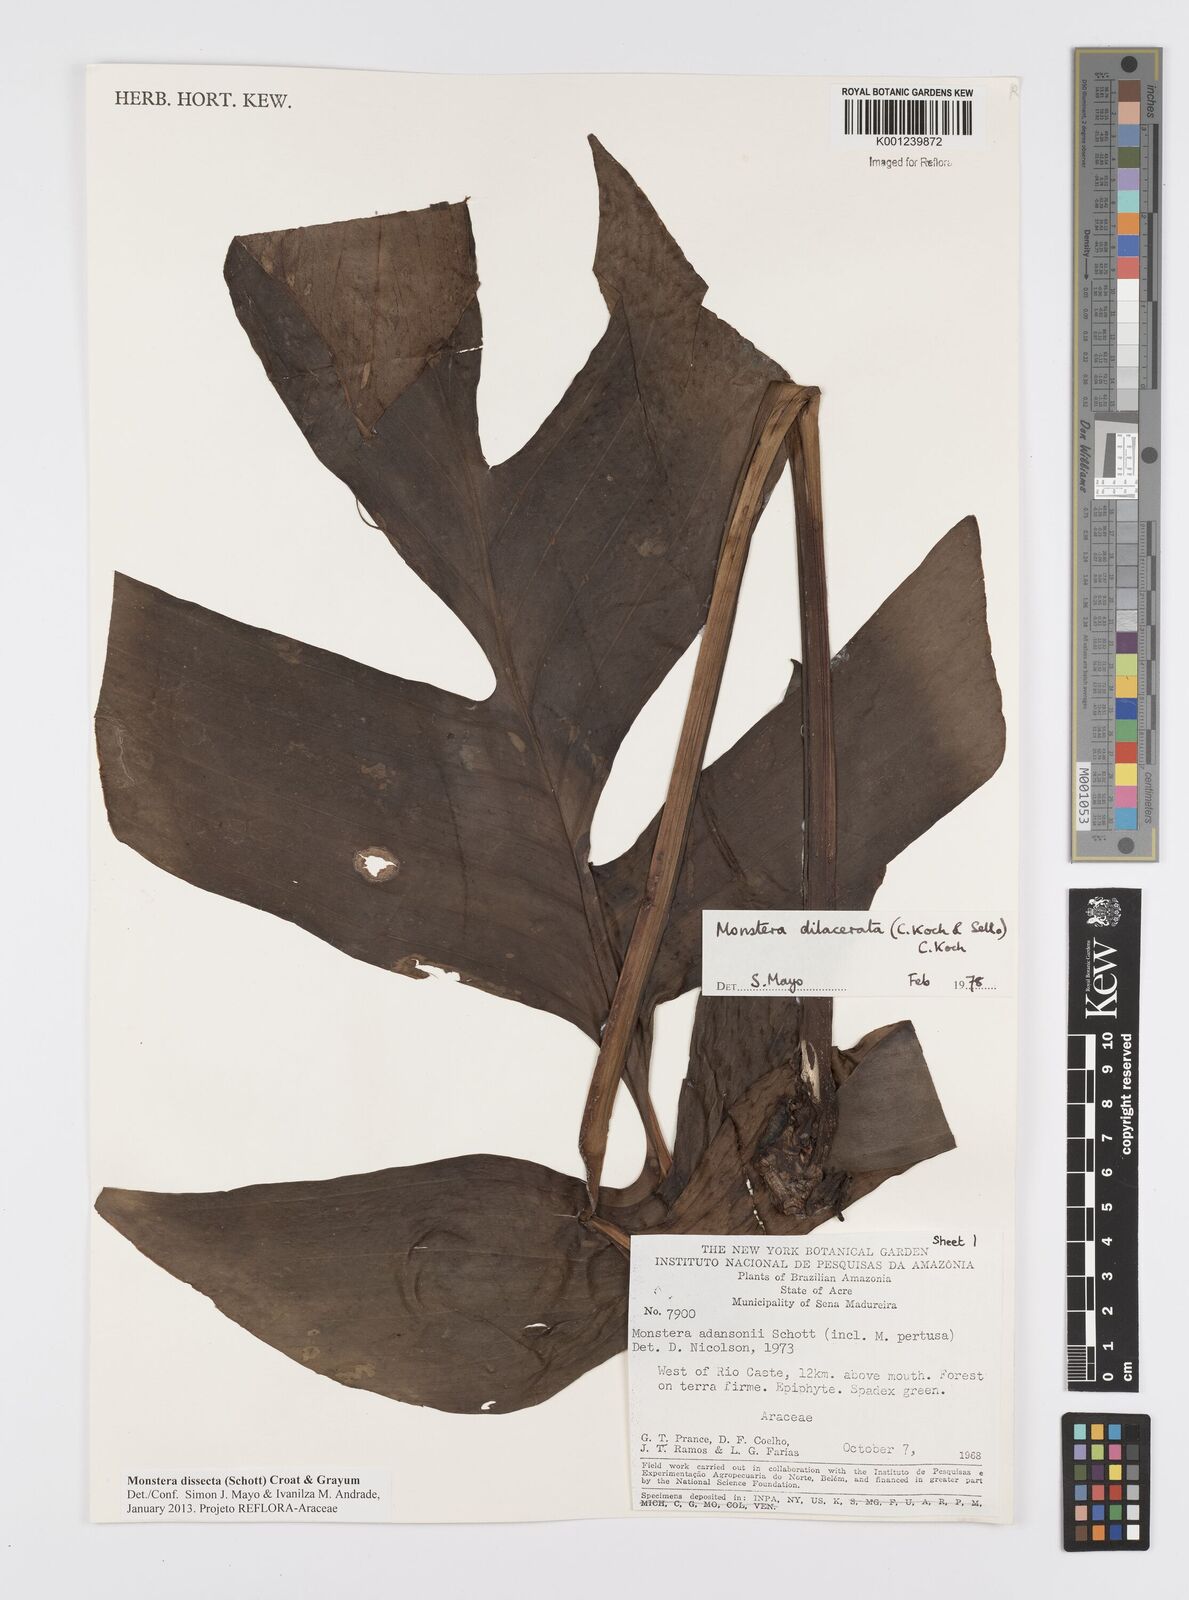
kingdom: Plantae
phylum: Tracheophyta
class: Liliopsida
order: Alismatales
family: Araceae
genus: Monstera
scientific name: Monstera dissecta
